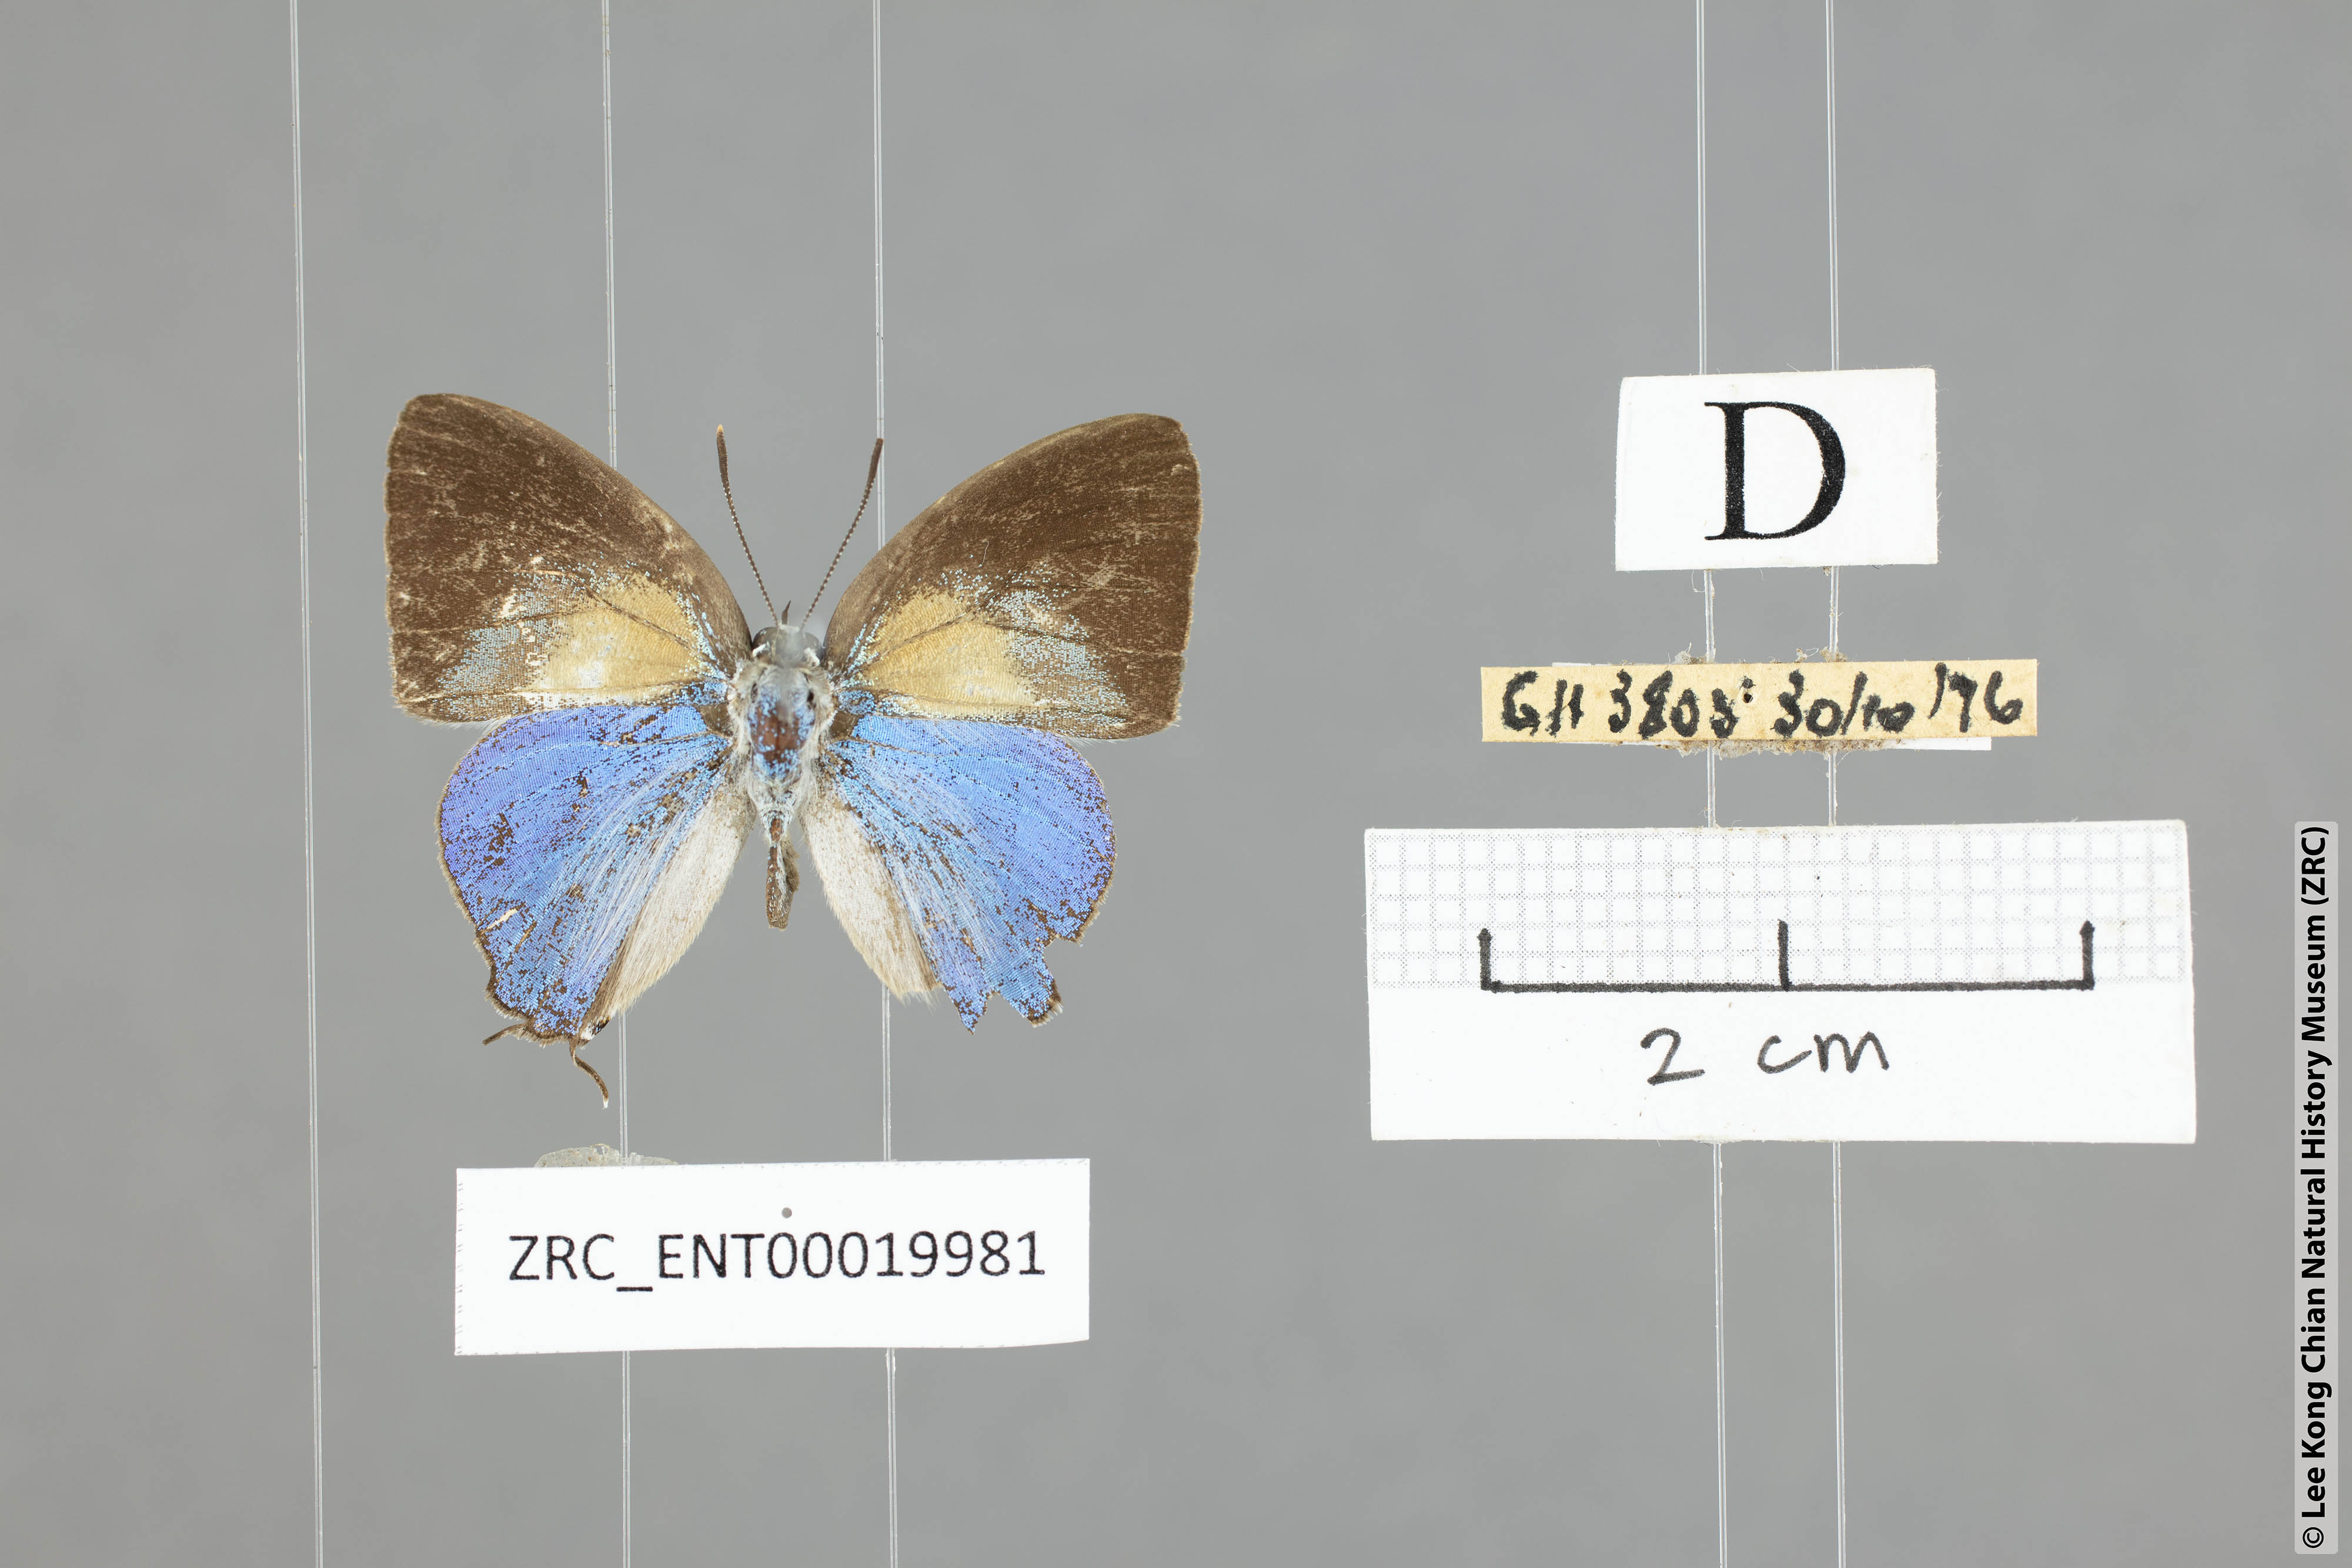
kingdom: Animalia
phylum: Arthropoda
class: Insecta
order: Lepidoptera
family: Lycaenidae
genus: Bullis
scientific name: Bullis elioti
